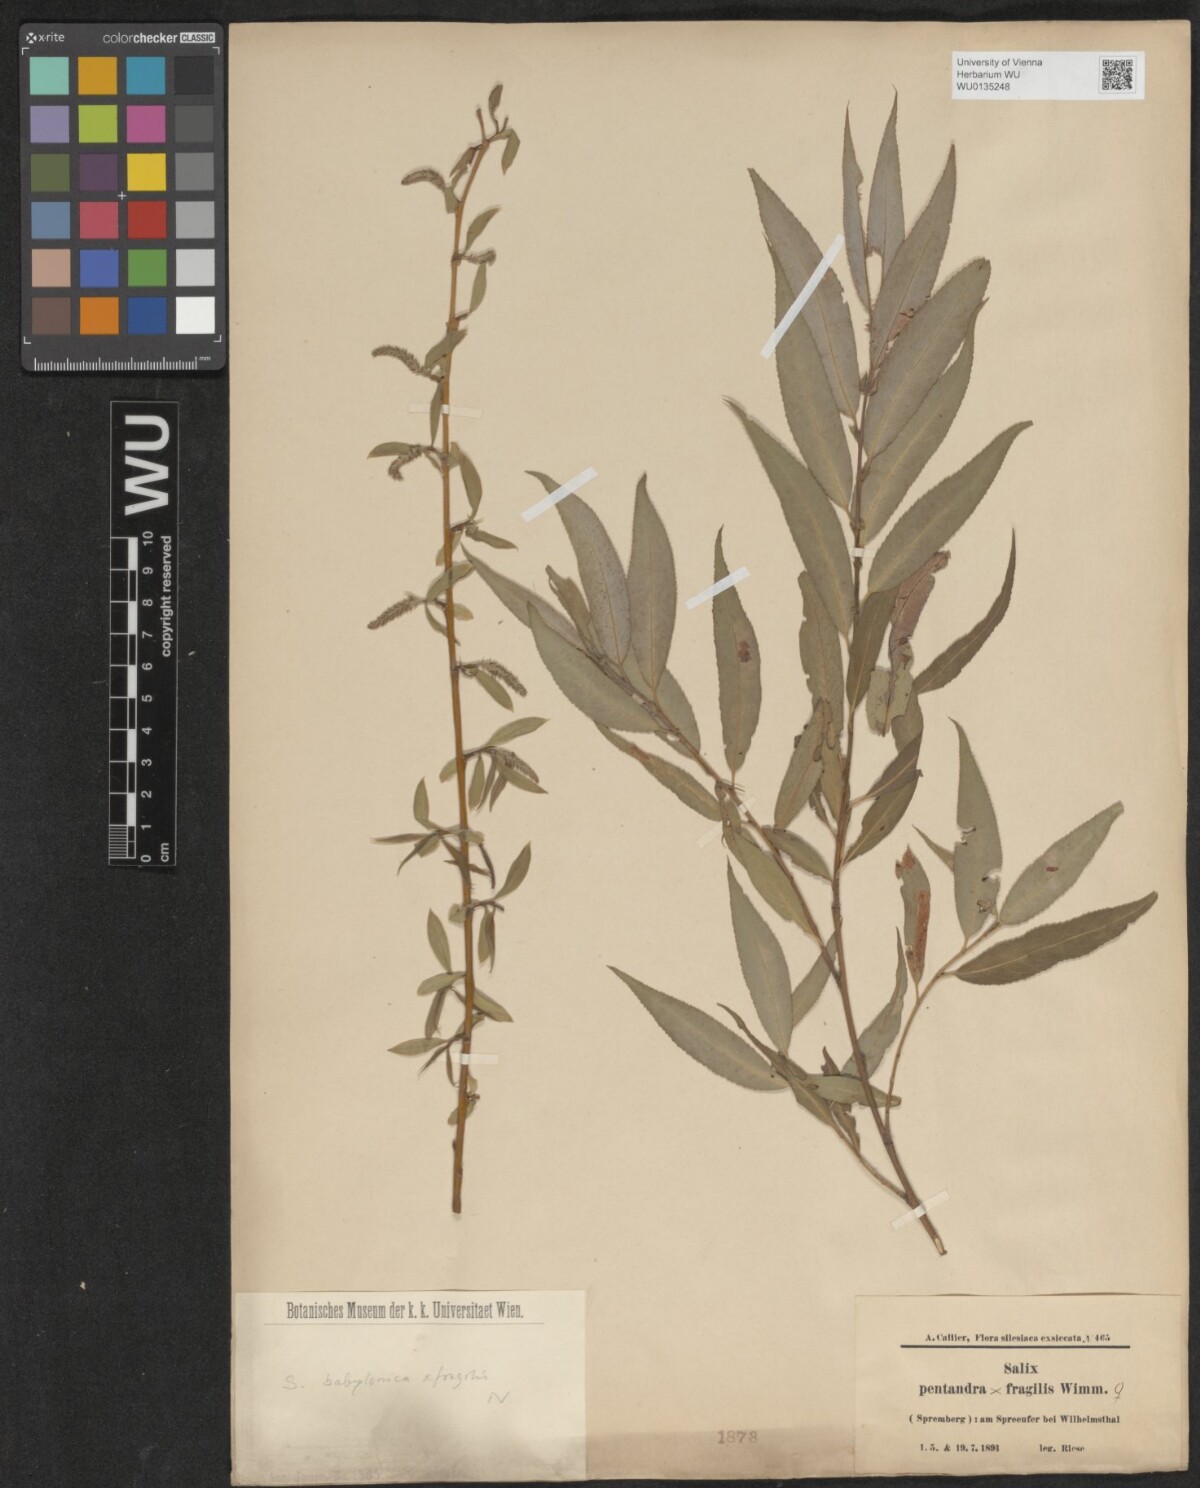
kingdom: Plantae
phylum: Tracheophyta
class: Magnoliopsida
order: Malpighiales
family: Salicaceae
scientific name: Salicaceae
